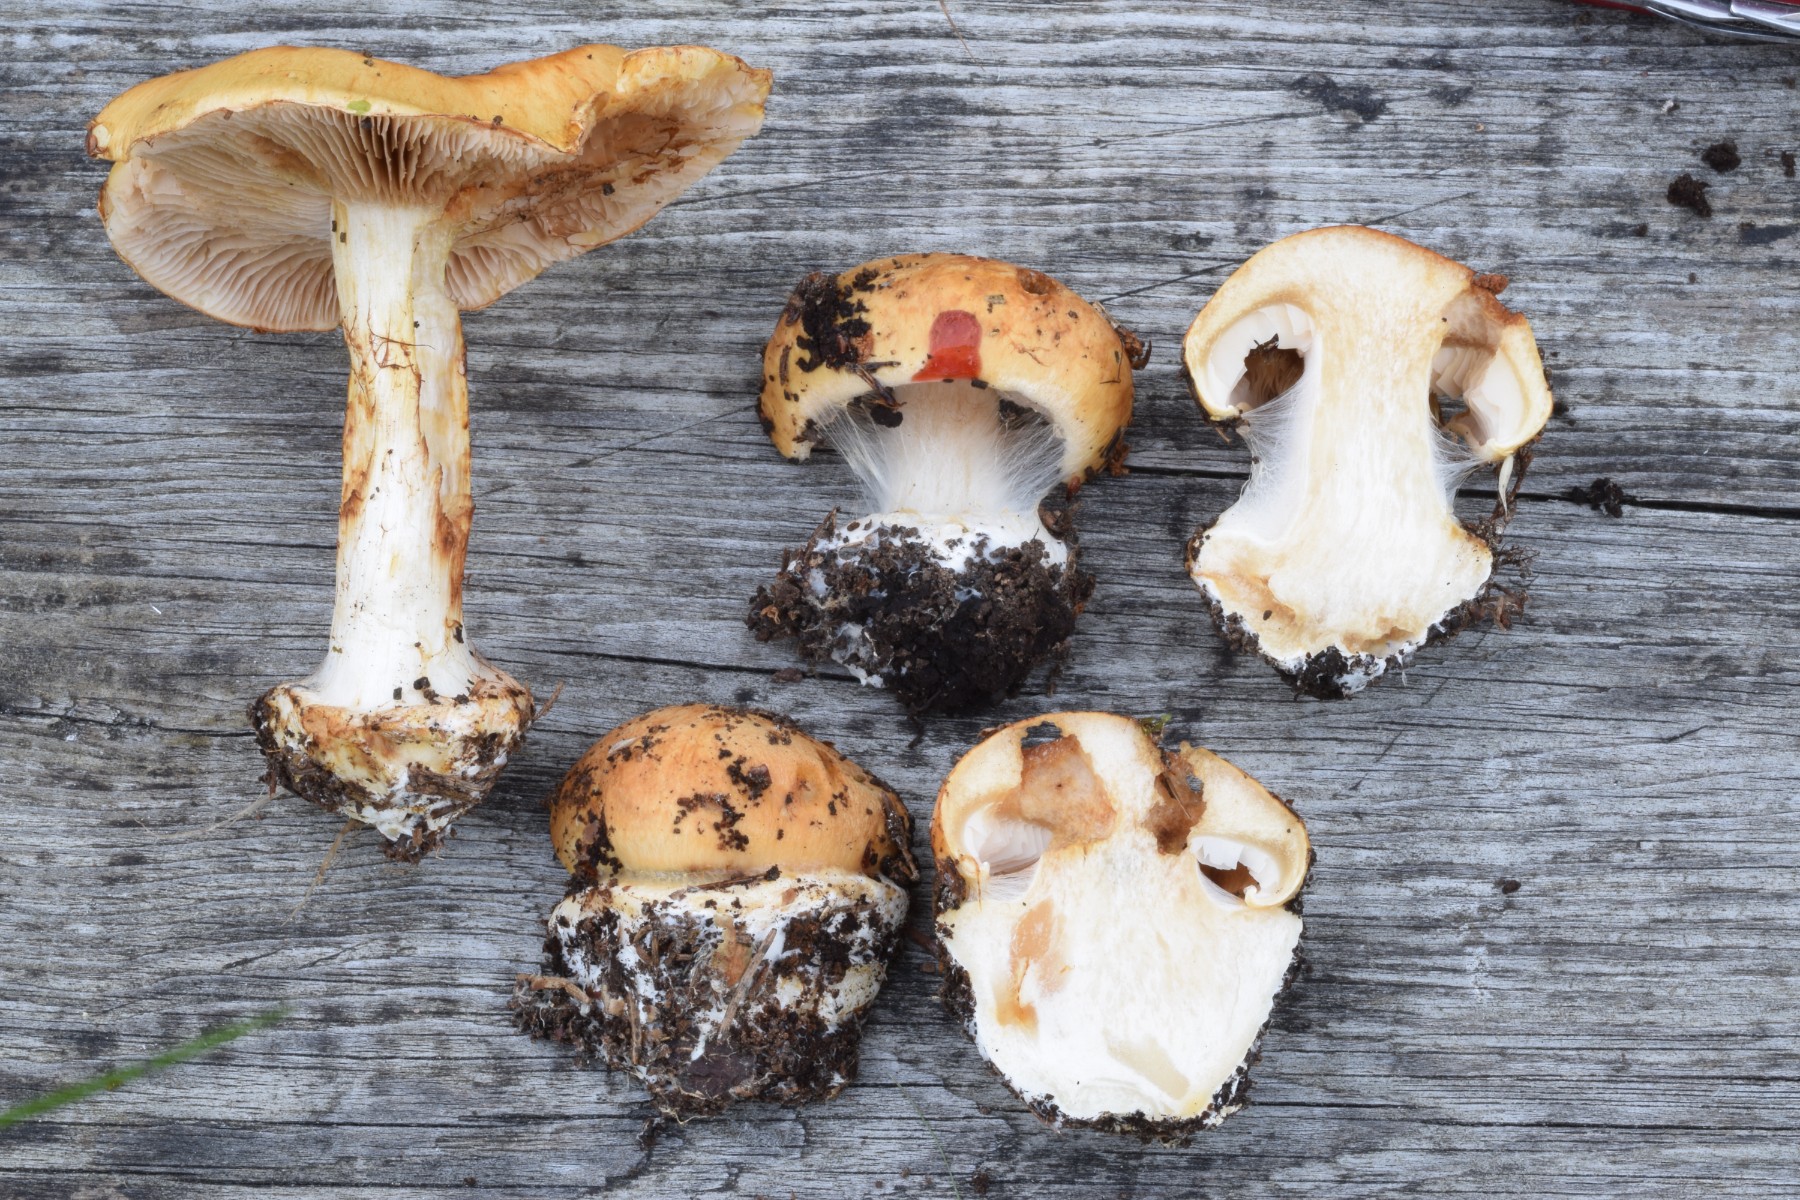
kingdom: Fungi
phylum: Basidiomycota
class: Agaricomycetes
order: Agaricales
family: Cortinariaceae
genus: Cortinarius
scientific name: Cortinarius
